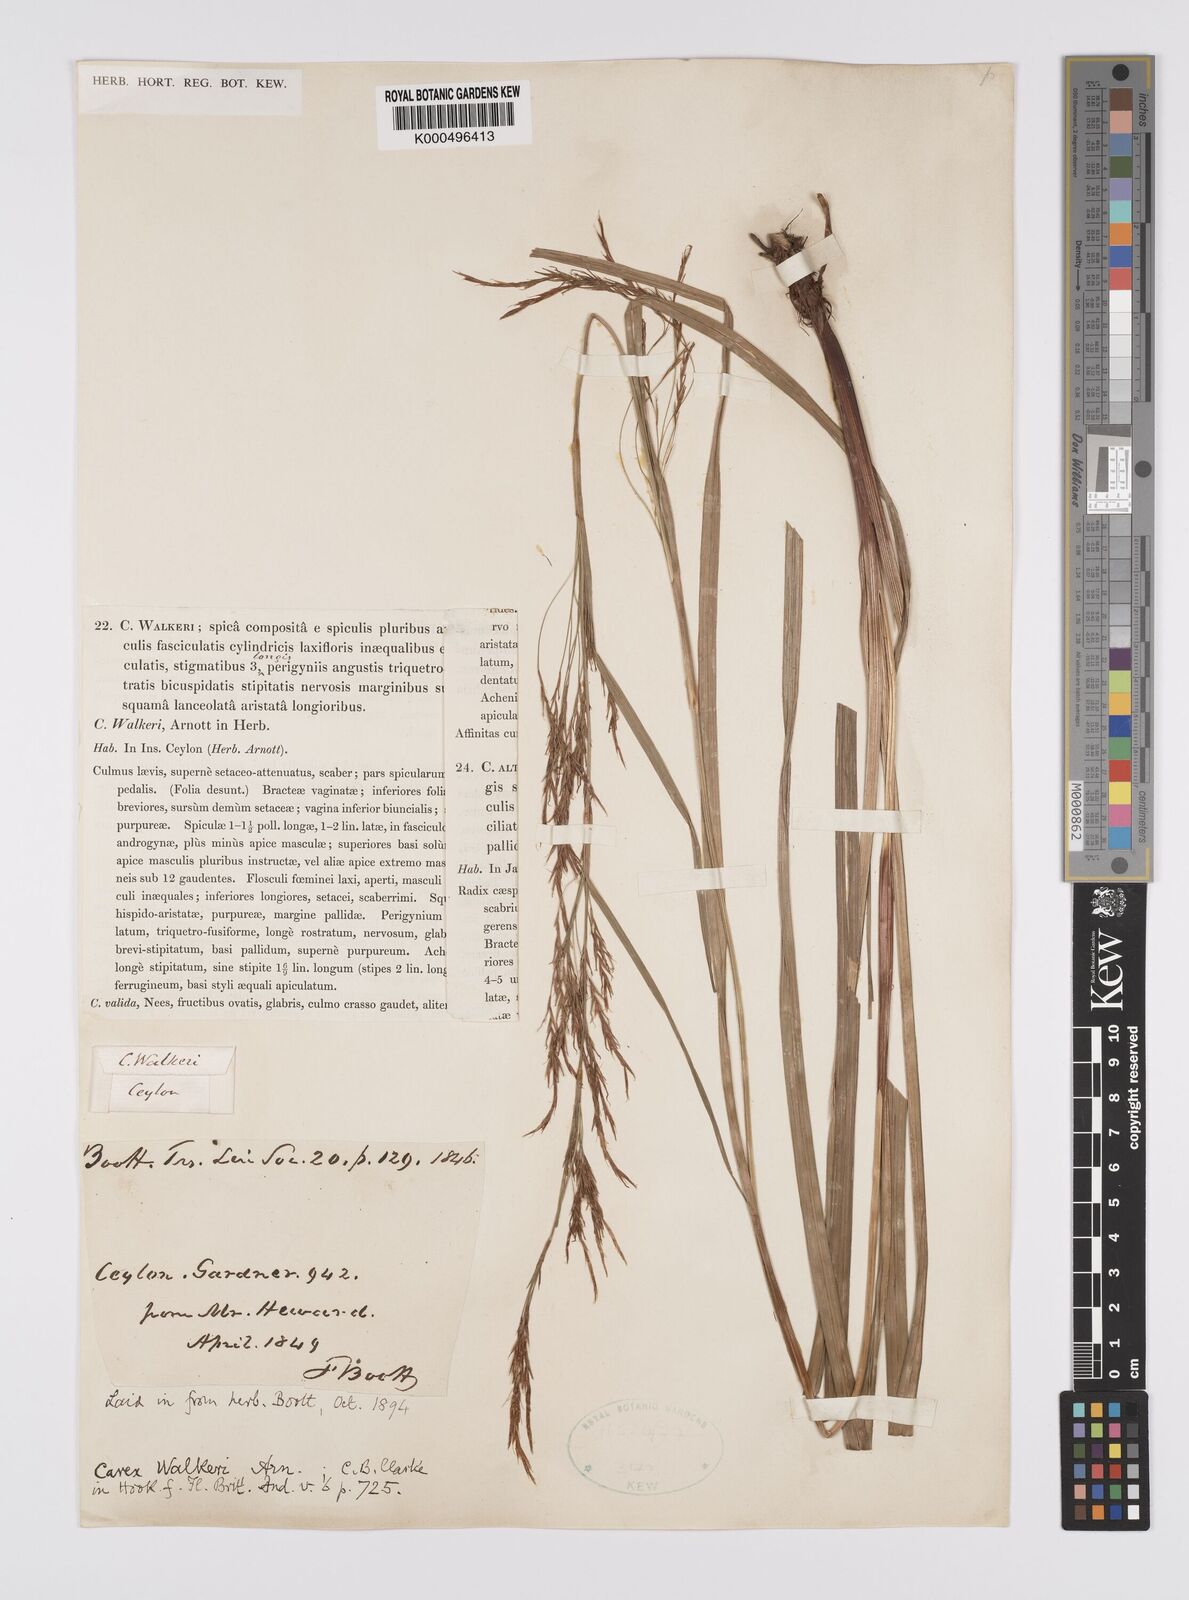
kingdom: Plantae
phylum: Tracheophyta
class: Liliopsida
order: Poales
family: Cyperaceae
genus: Carex
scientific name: Carex walkeri
